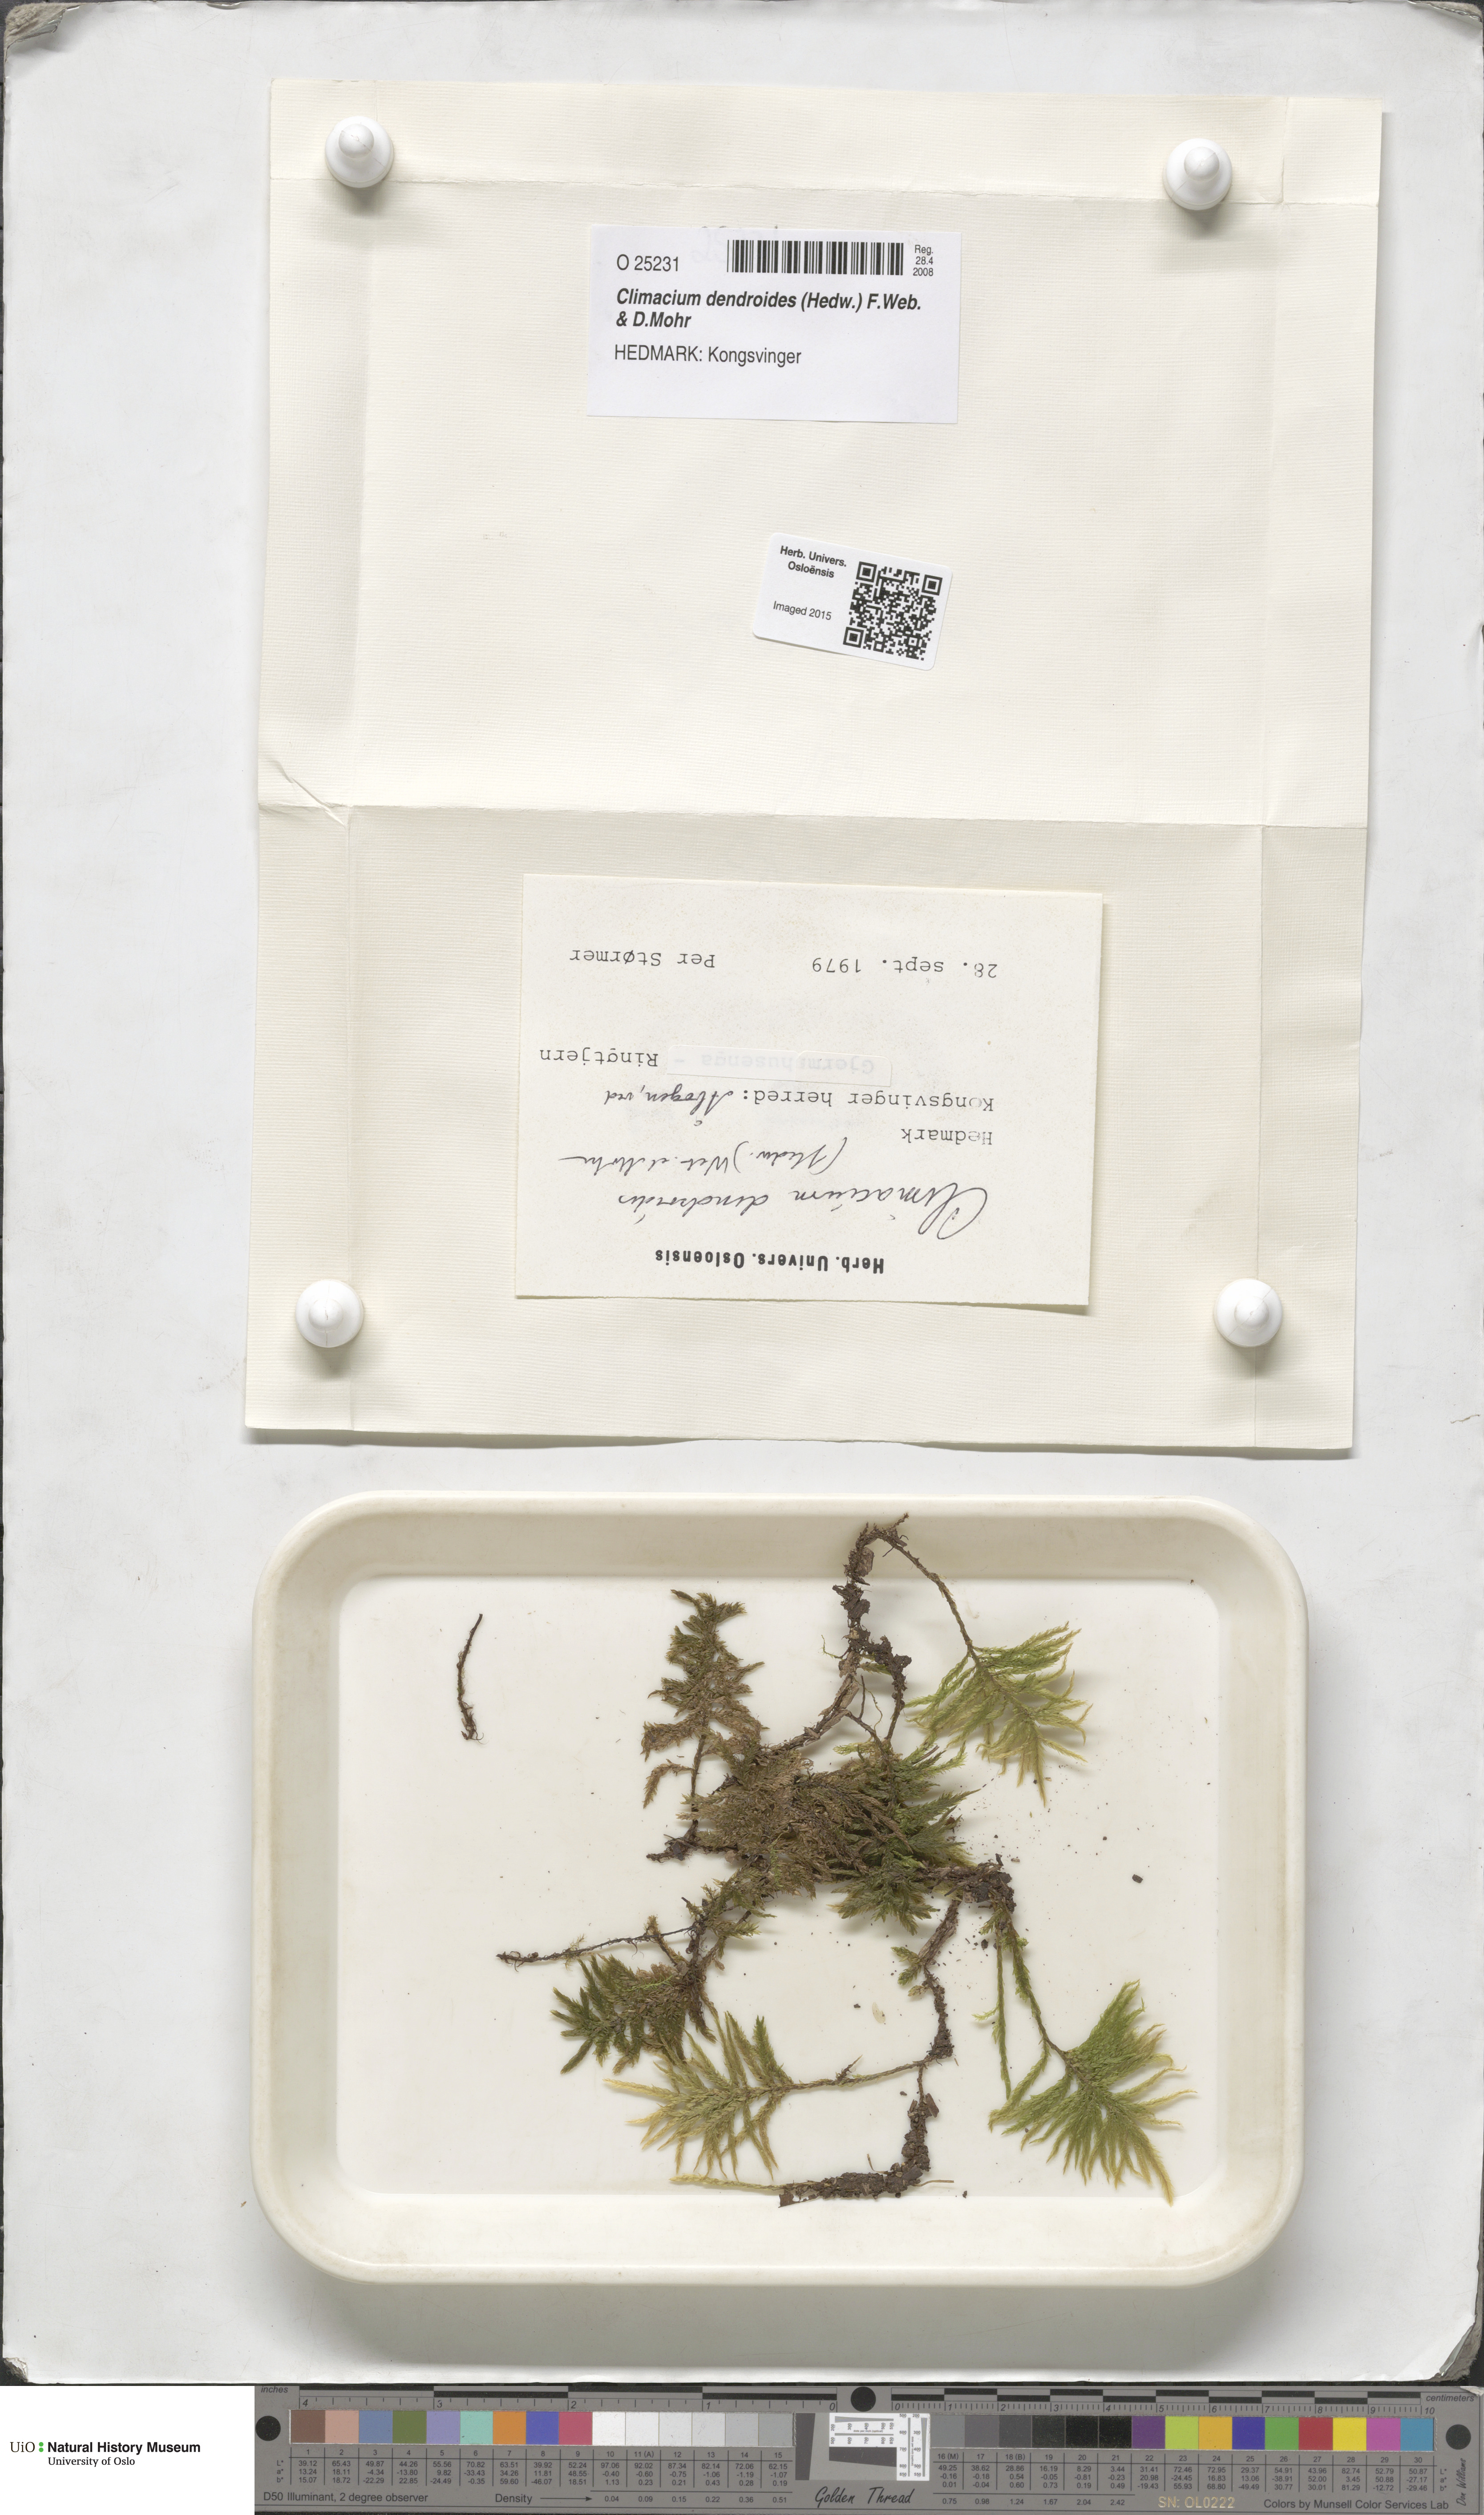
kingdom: Plantae
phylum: Bryophyta
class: Bryopsida
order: Hypnales
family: Climaciaceae
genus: Climacium
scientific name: Climacium dendroides
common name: Northern tree moss
